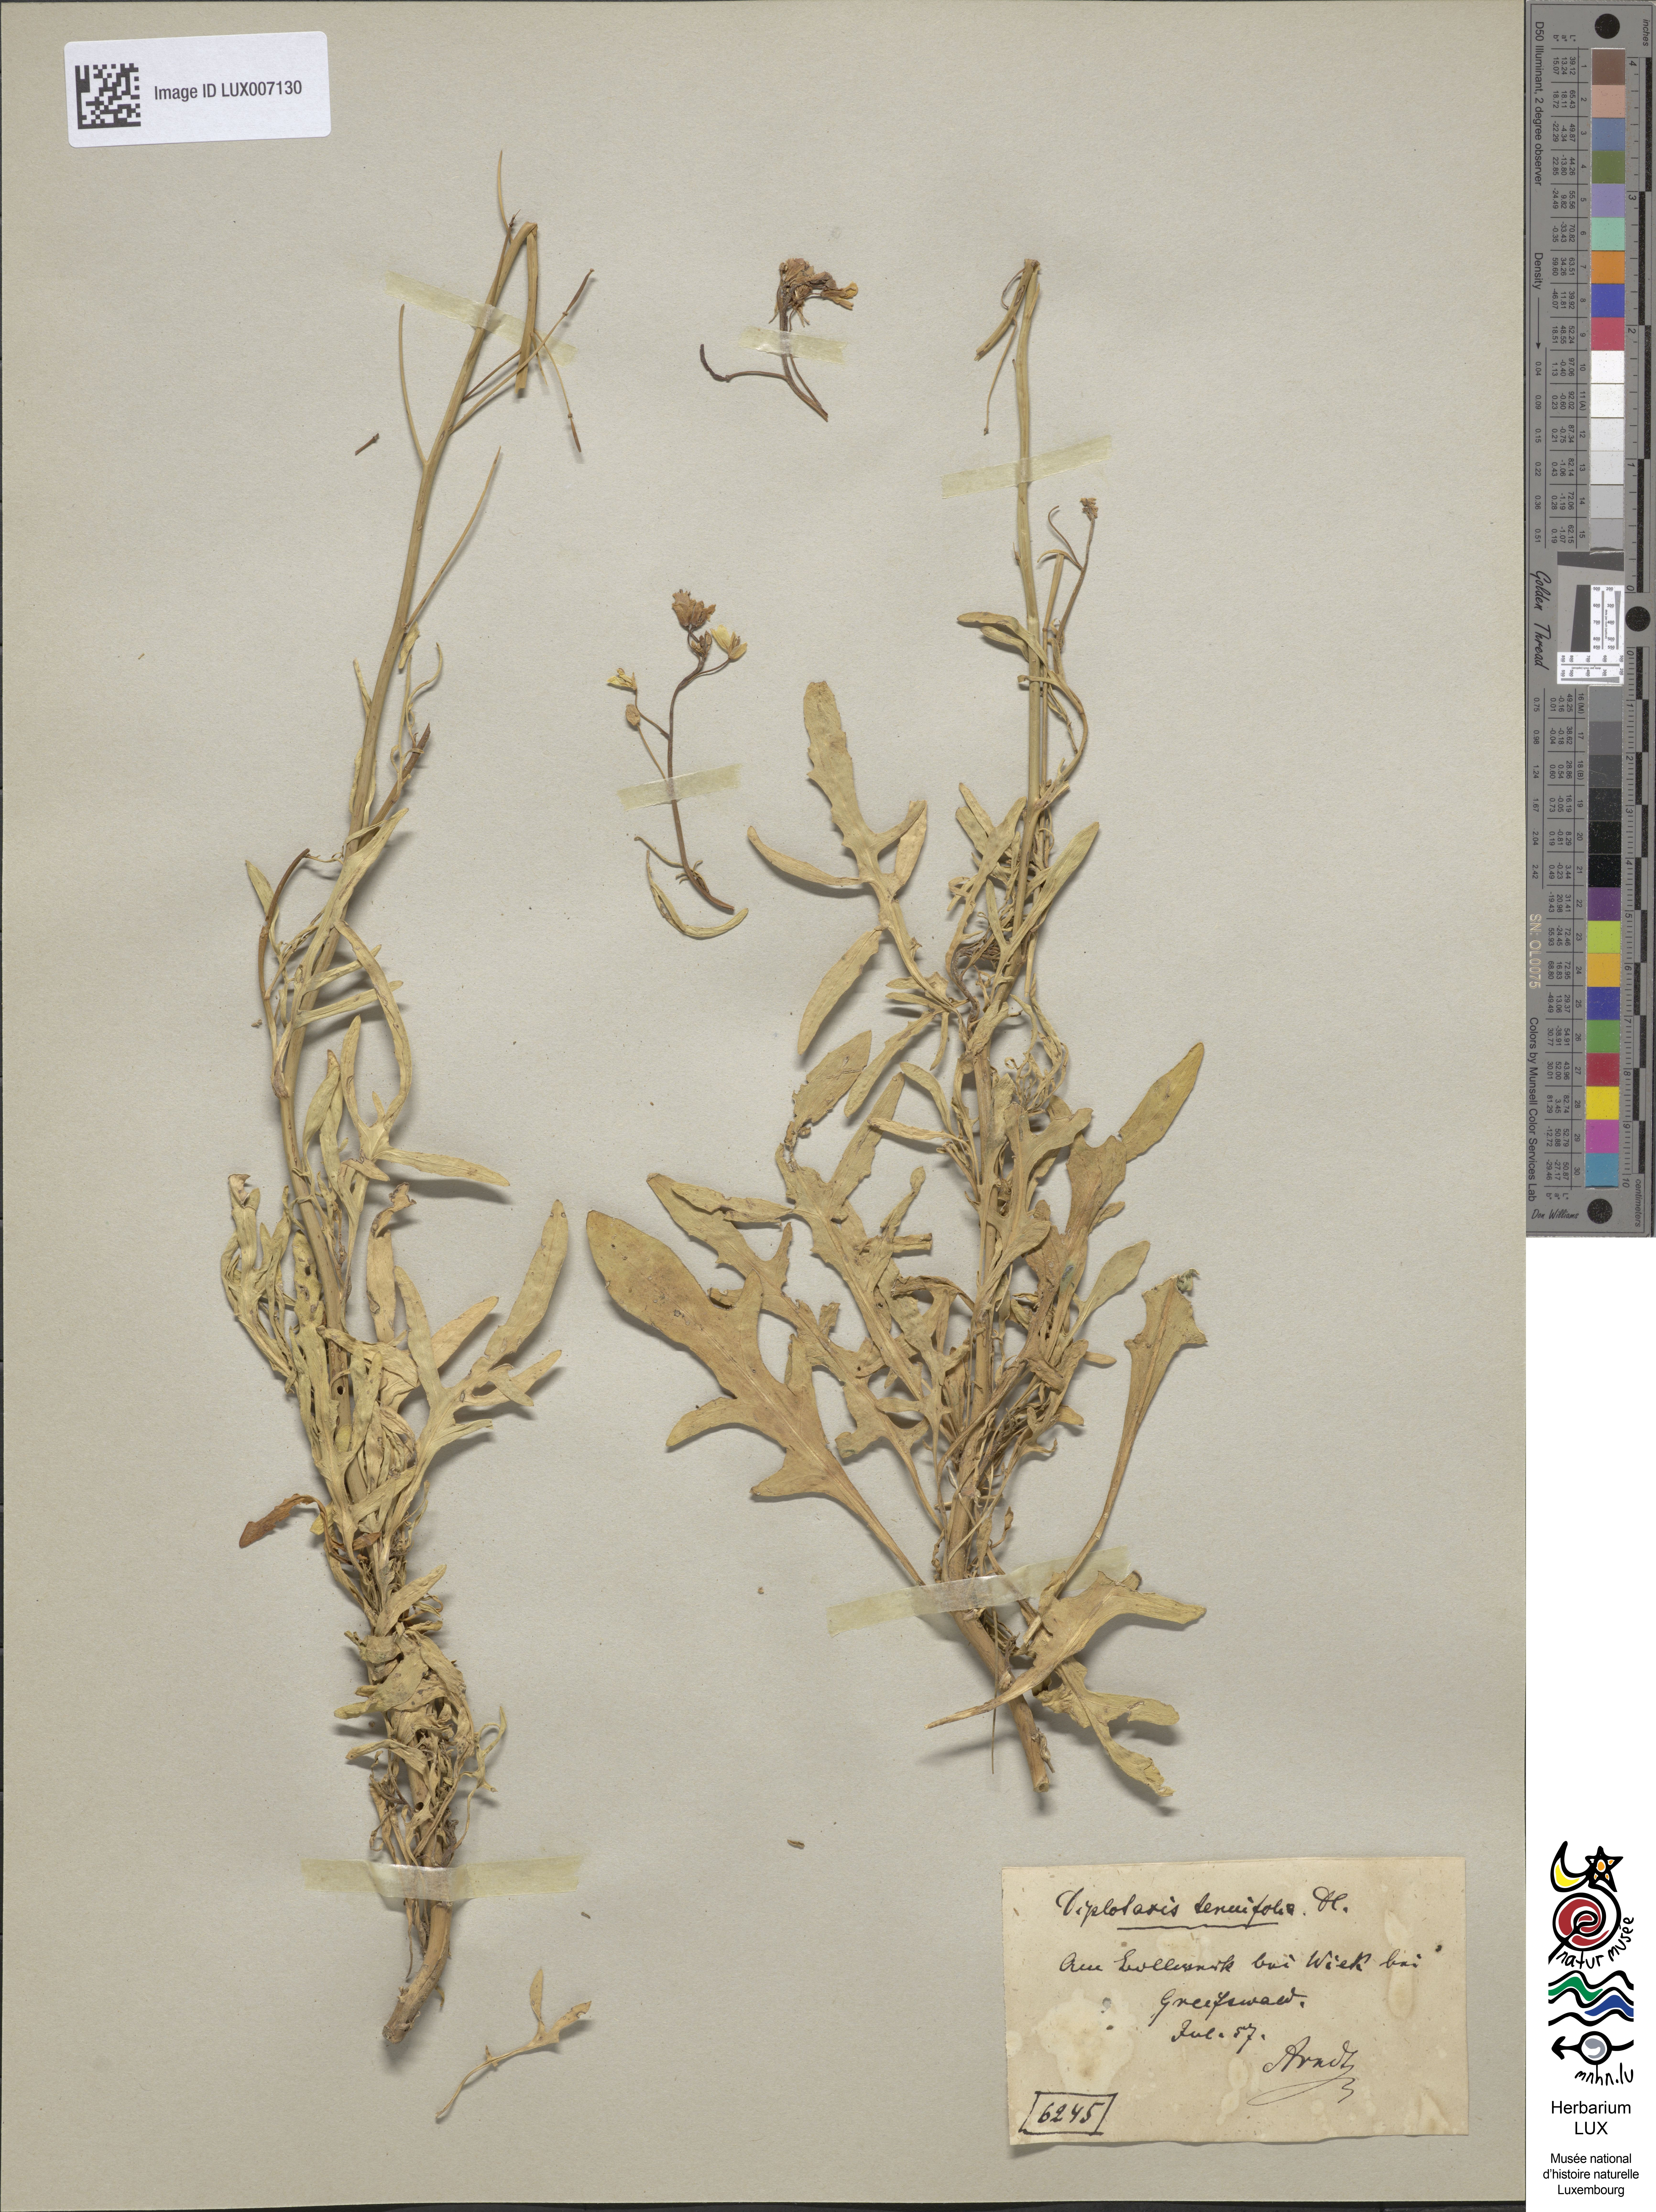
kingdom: Plantae
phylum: Tracheophyta
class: Magnoliopsida
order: Brassicales
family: Brassicaceae
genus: Diplotaxis
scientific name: Diplotaxis tenuifolia
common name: Perennial wall-rocket
